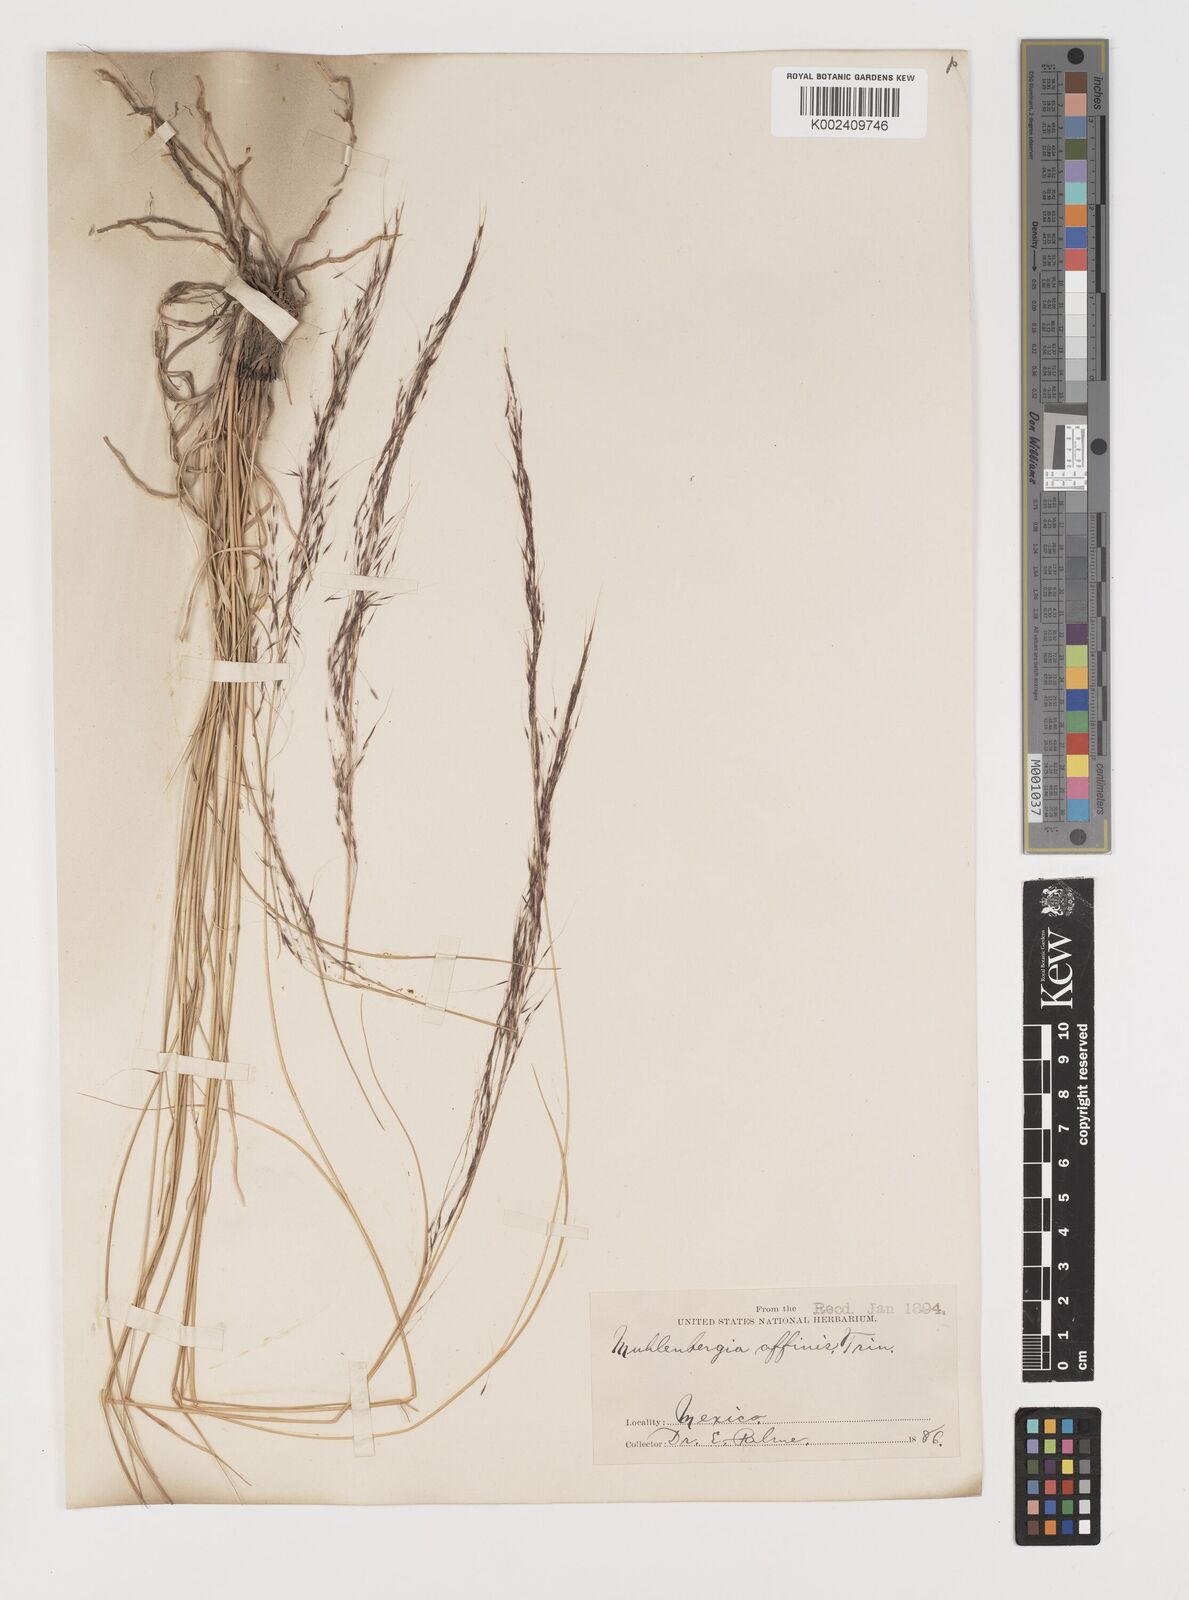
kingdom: Plantae
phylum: Tracheophyta
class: Liliopsida
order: Poales
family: Poaceae
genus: Muhlenbergia
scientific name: Muhlenbergia rigida
